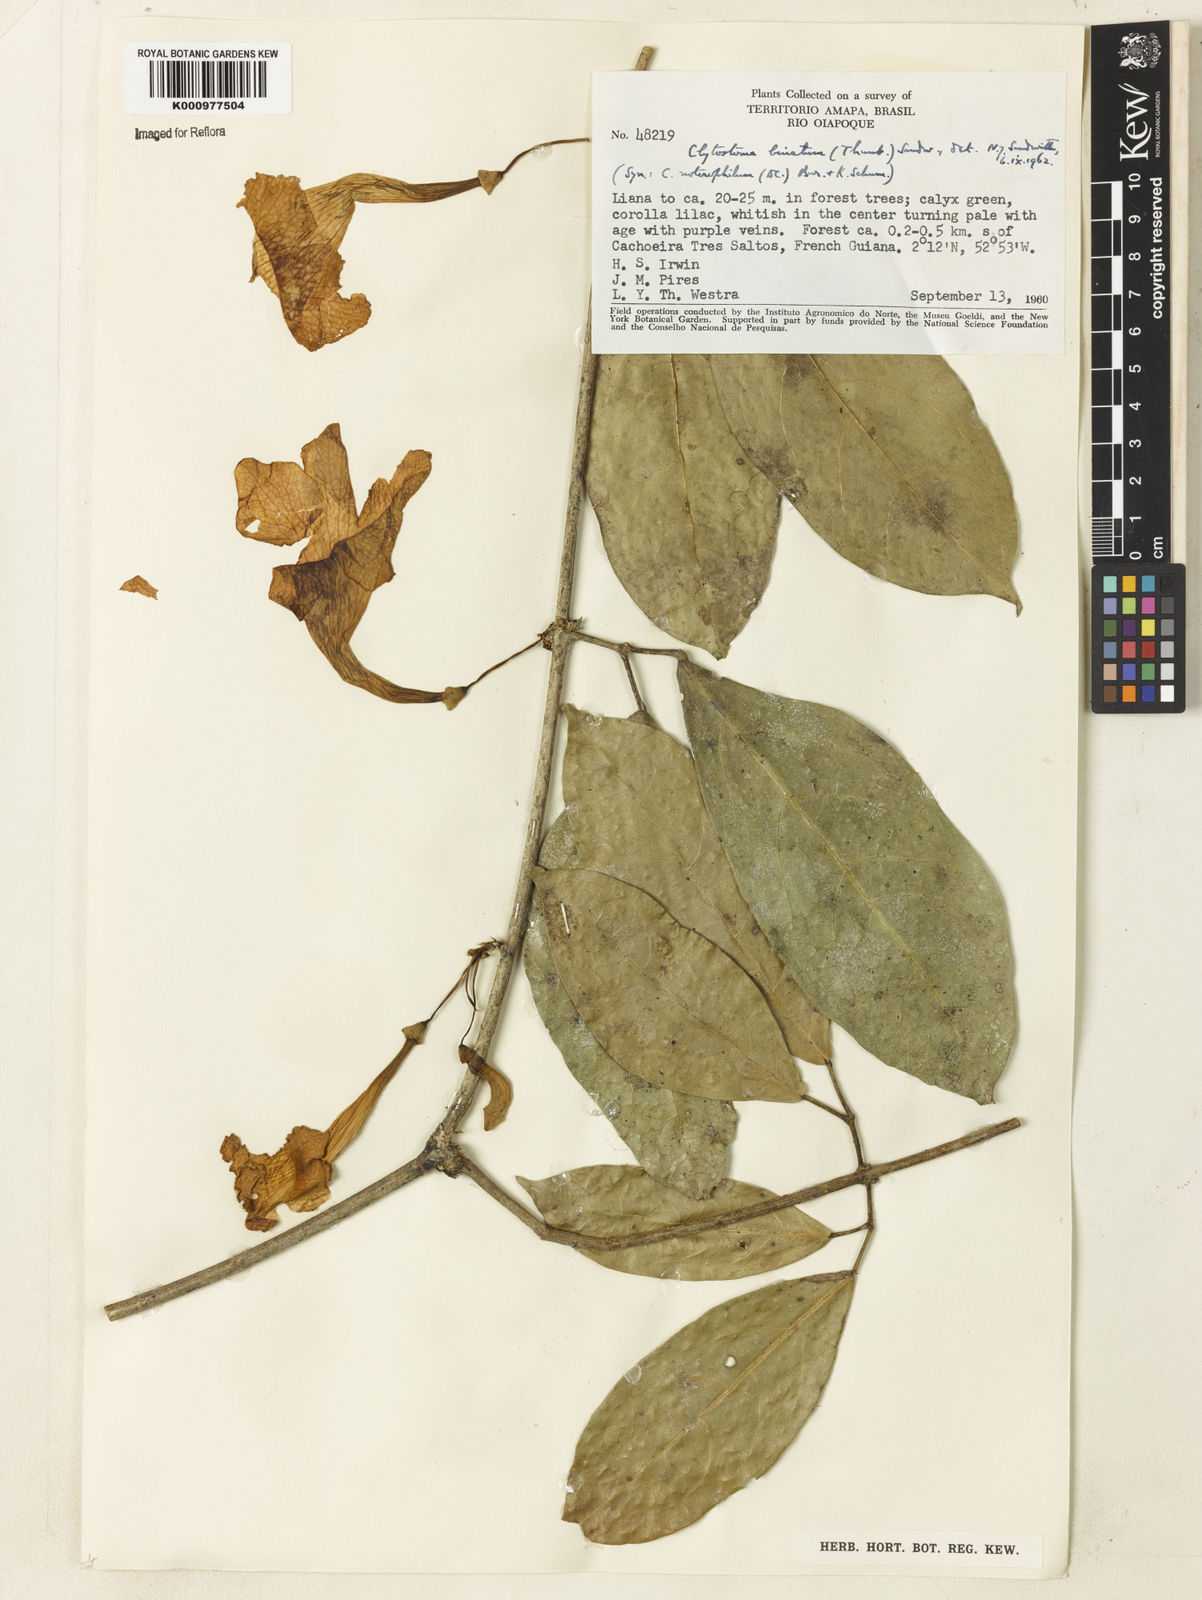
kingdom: Plantae
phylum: Tracheophyta
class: Magnoliopsida
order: Lamiales
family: Bignoniaceae
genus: Bignonia
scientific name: Bignonia binata
